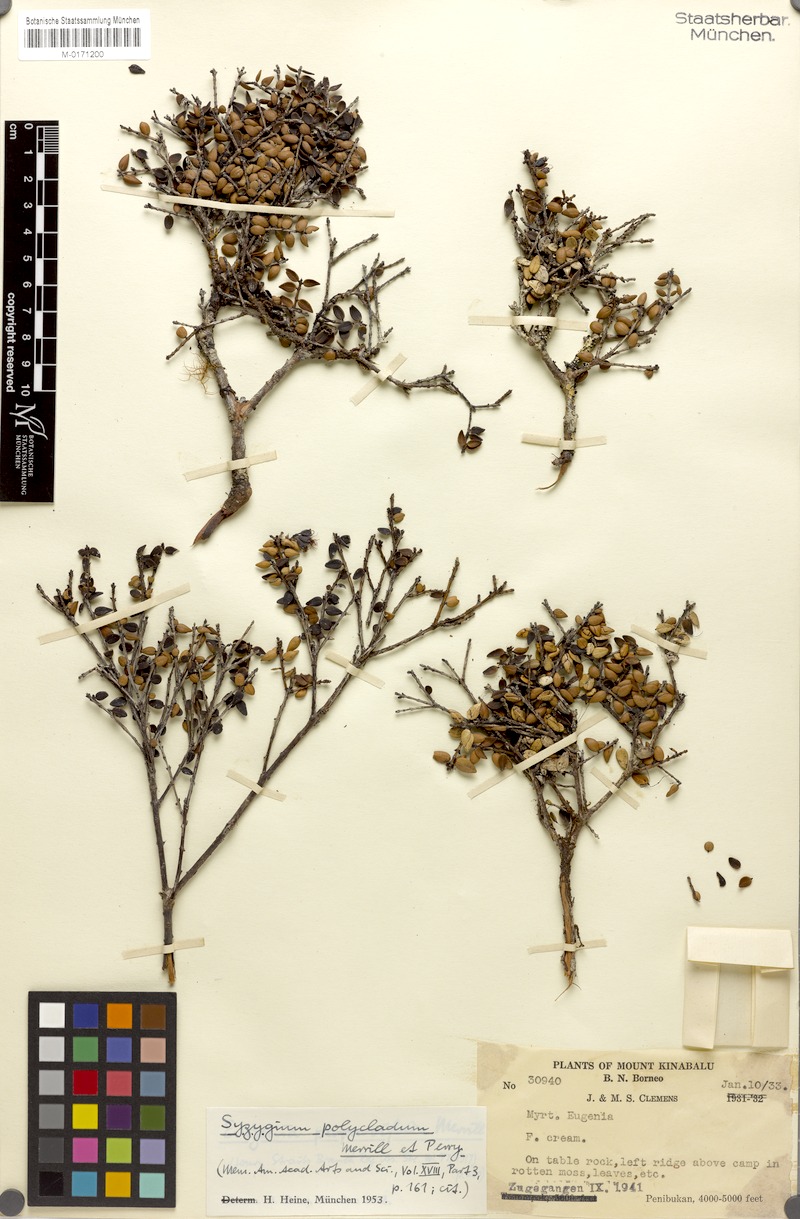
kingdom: Plantae
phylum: Tracheophyta
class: Magnoliopsida
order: Myrtales
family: Myrtaceae
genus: Syzygium
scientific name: Syzygium kinabaluense
